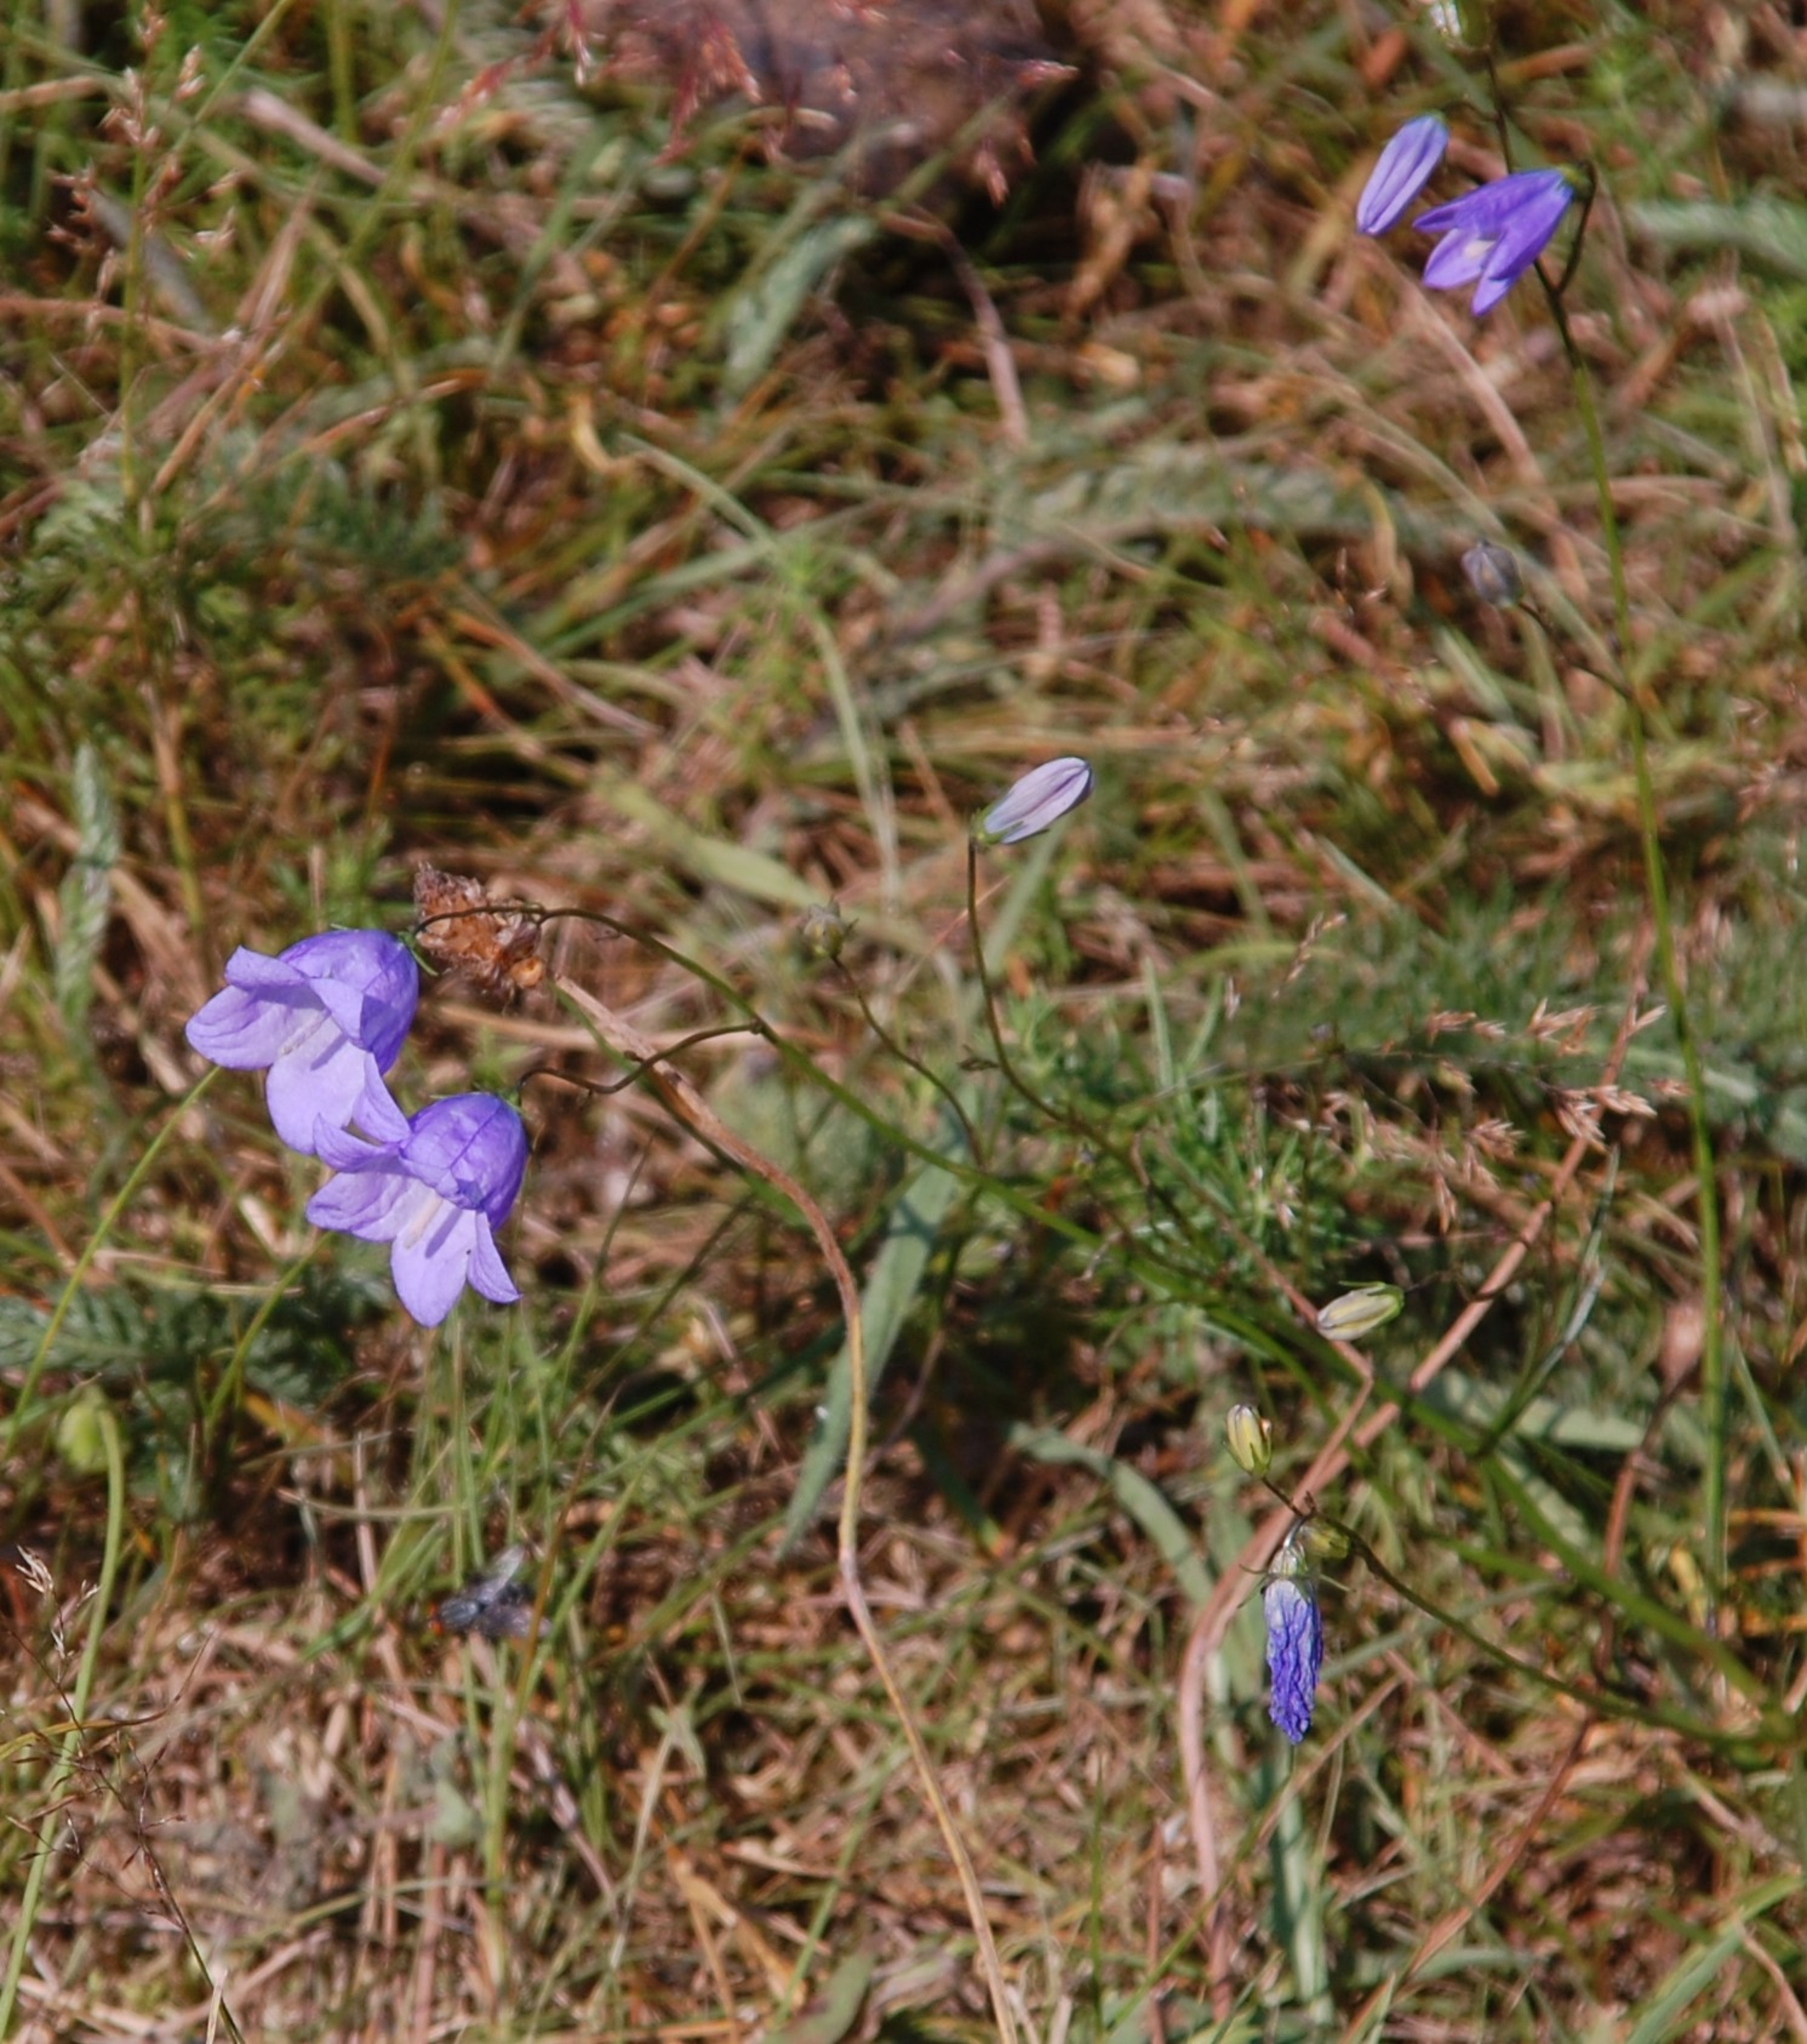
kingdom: Plantae
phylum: Tracheophyta
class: Magnoliopsida
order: Asterales
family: Campanulaceae
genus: Campanula
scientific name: Campanula rotundifolia
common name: Liden klokke
